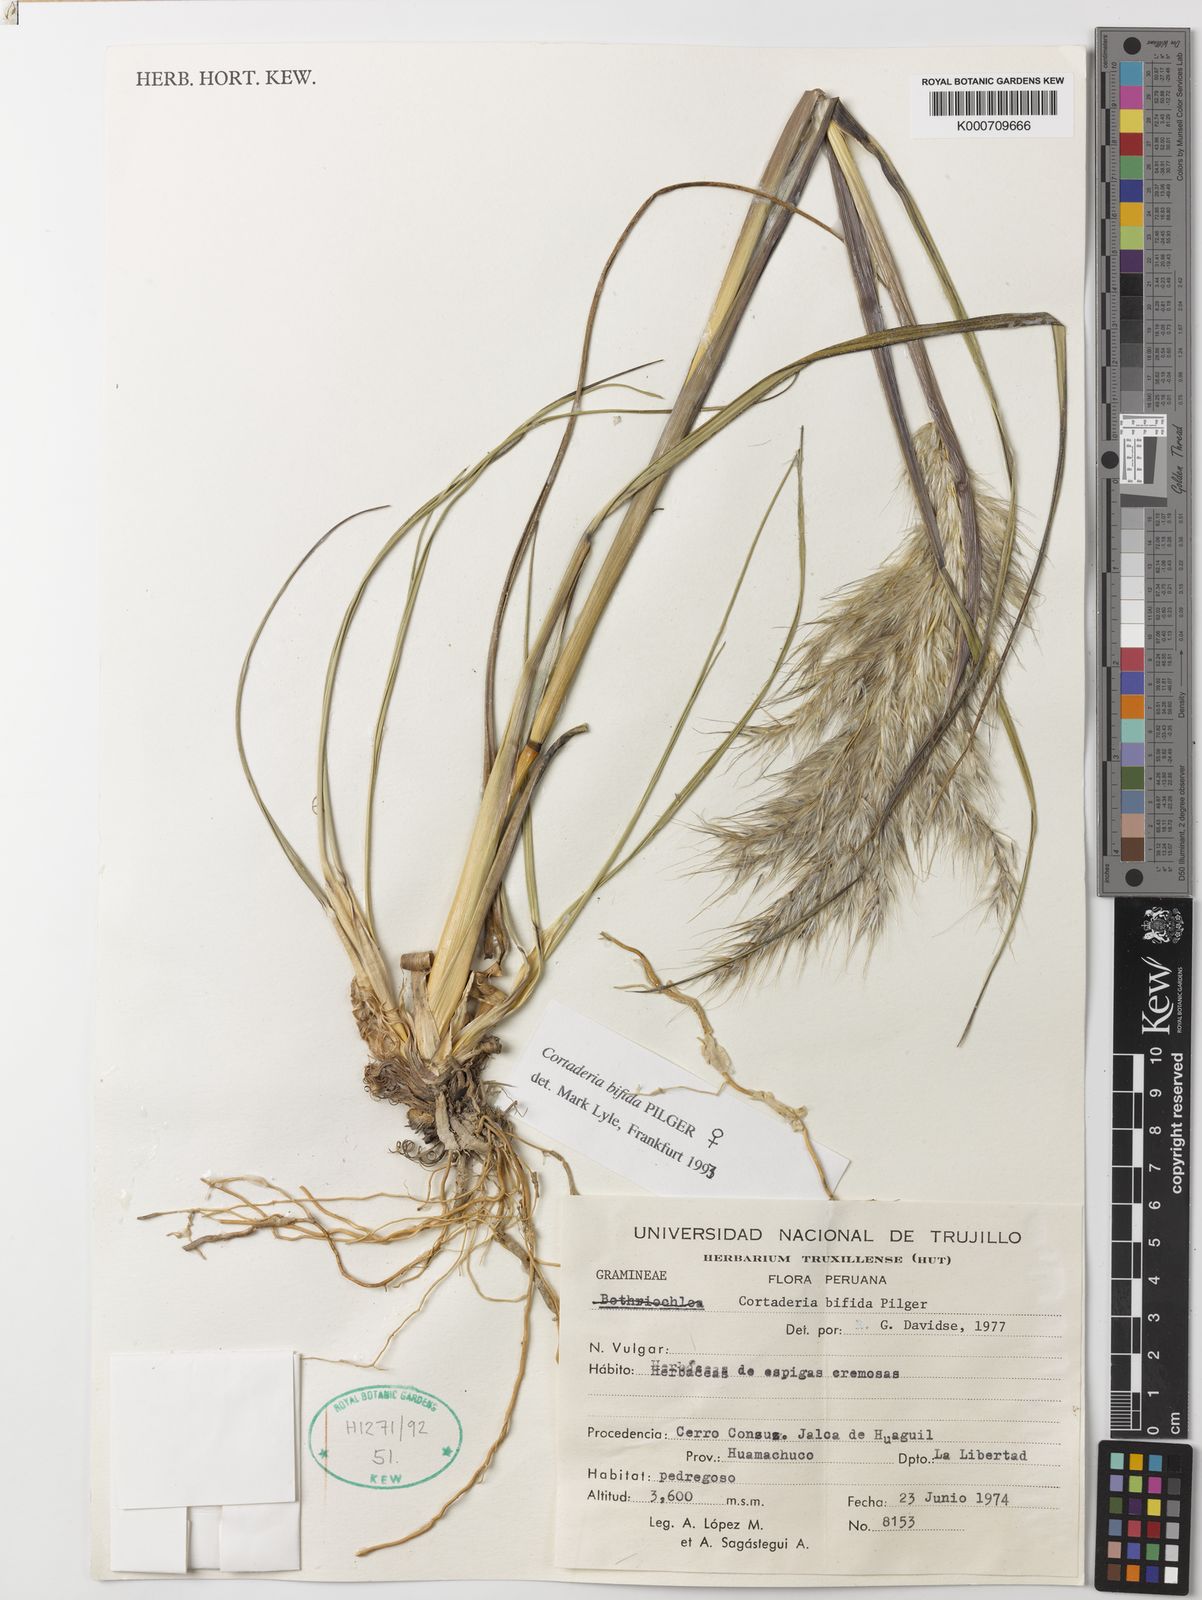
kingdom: Plantae
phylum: Tracheophyta
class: Liliopsida
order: Poales
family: Poaceae
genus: Cortaderia
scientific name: Cortaderia bifida
